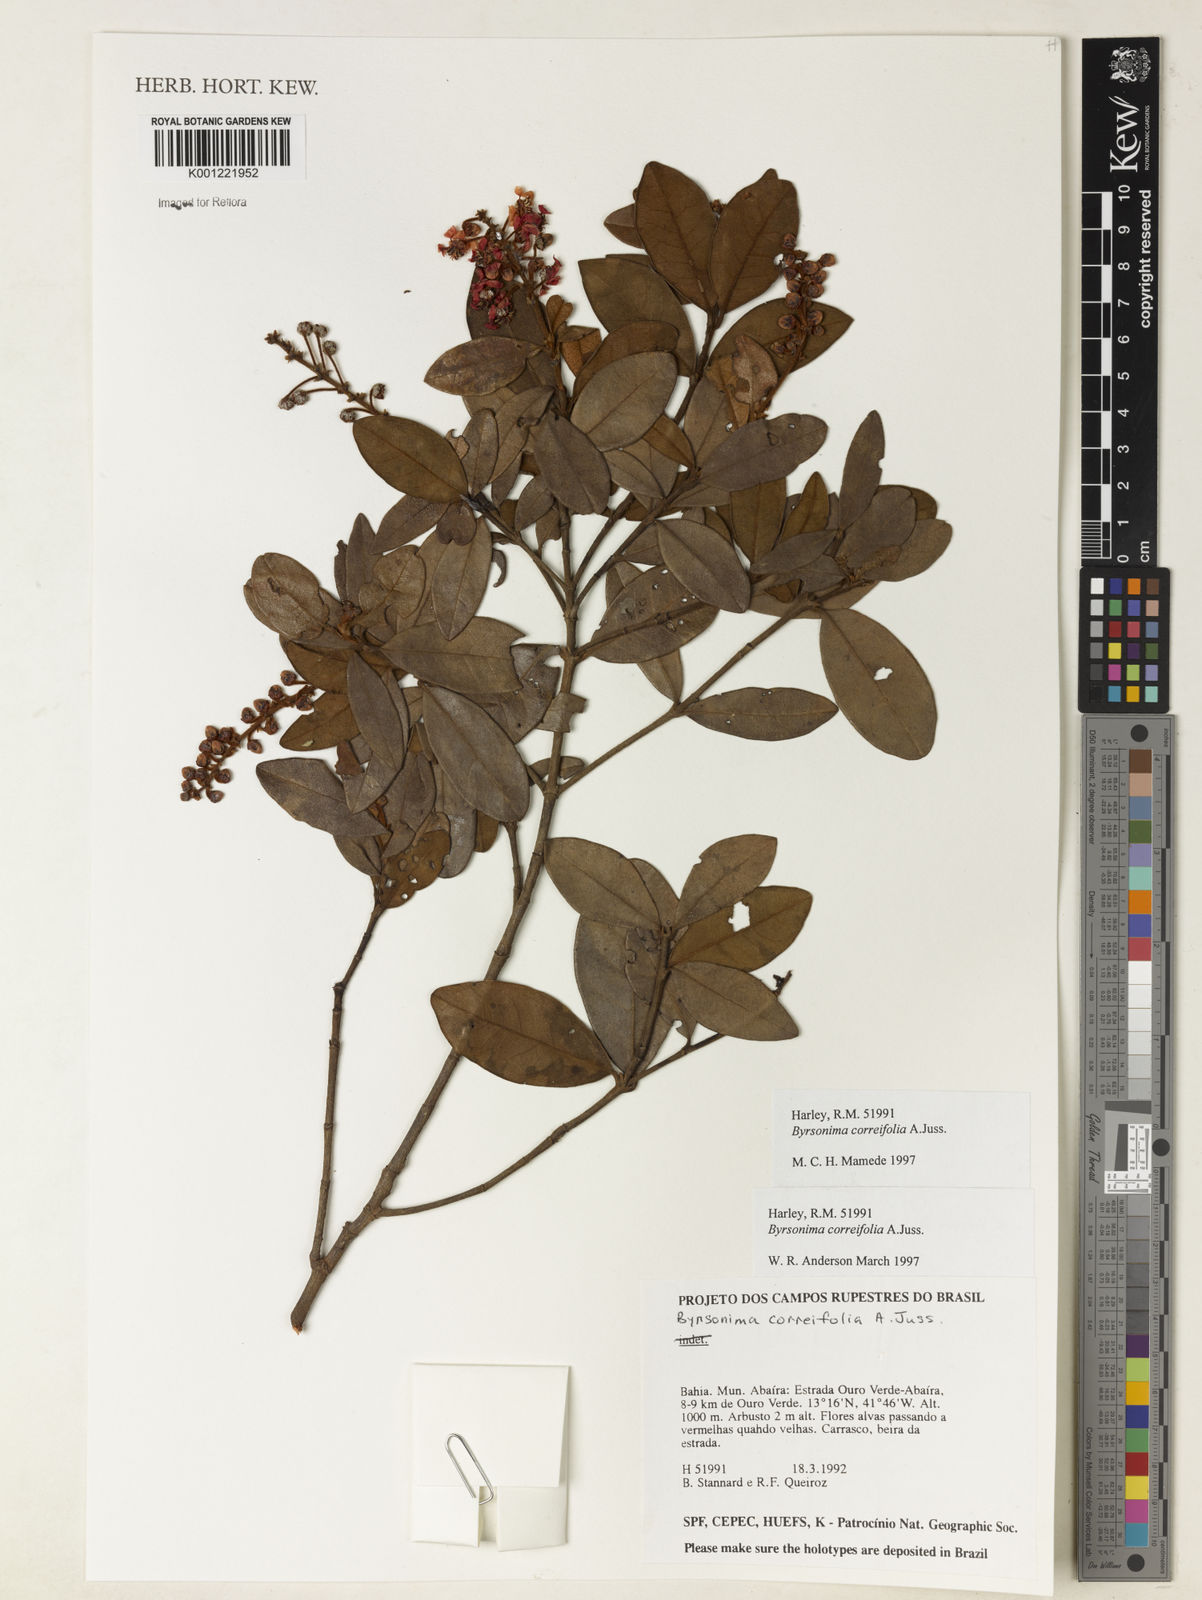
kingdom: Plantae
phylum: Tracheophyta
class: Magnoliopsida
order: Malpighiales
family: Malpighiaceae
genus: Byrsonima
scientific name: Byrsonima correifolia
